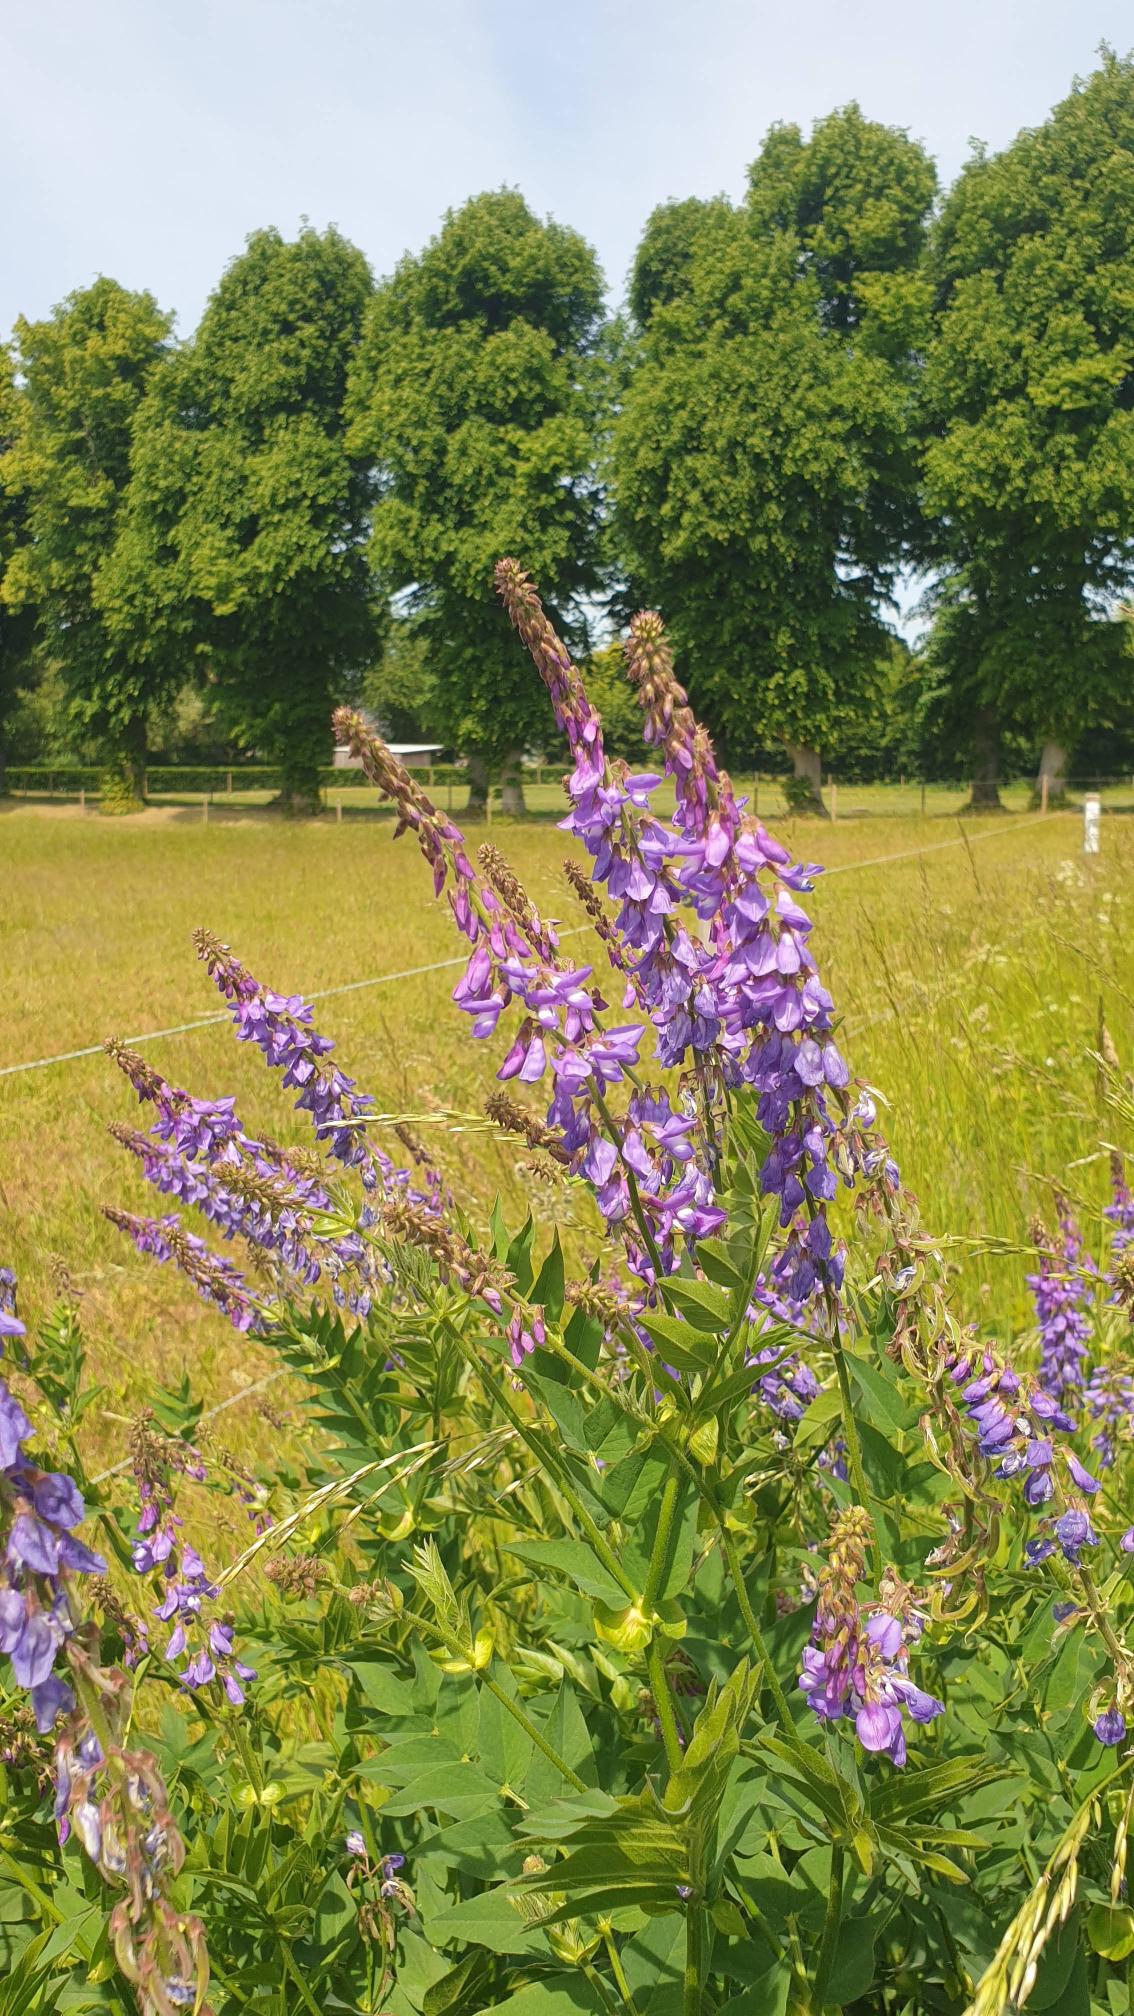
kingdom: Plantae
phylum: Tracheophyta
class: Magnoliopsida
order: Fabales
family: Fabaceae
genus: Galega
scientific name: Galega orientalis
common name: Blå stregbælg
